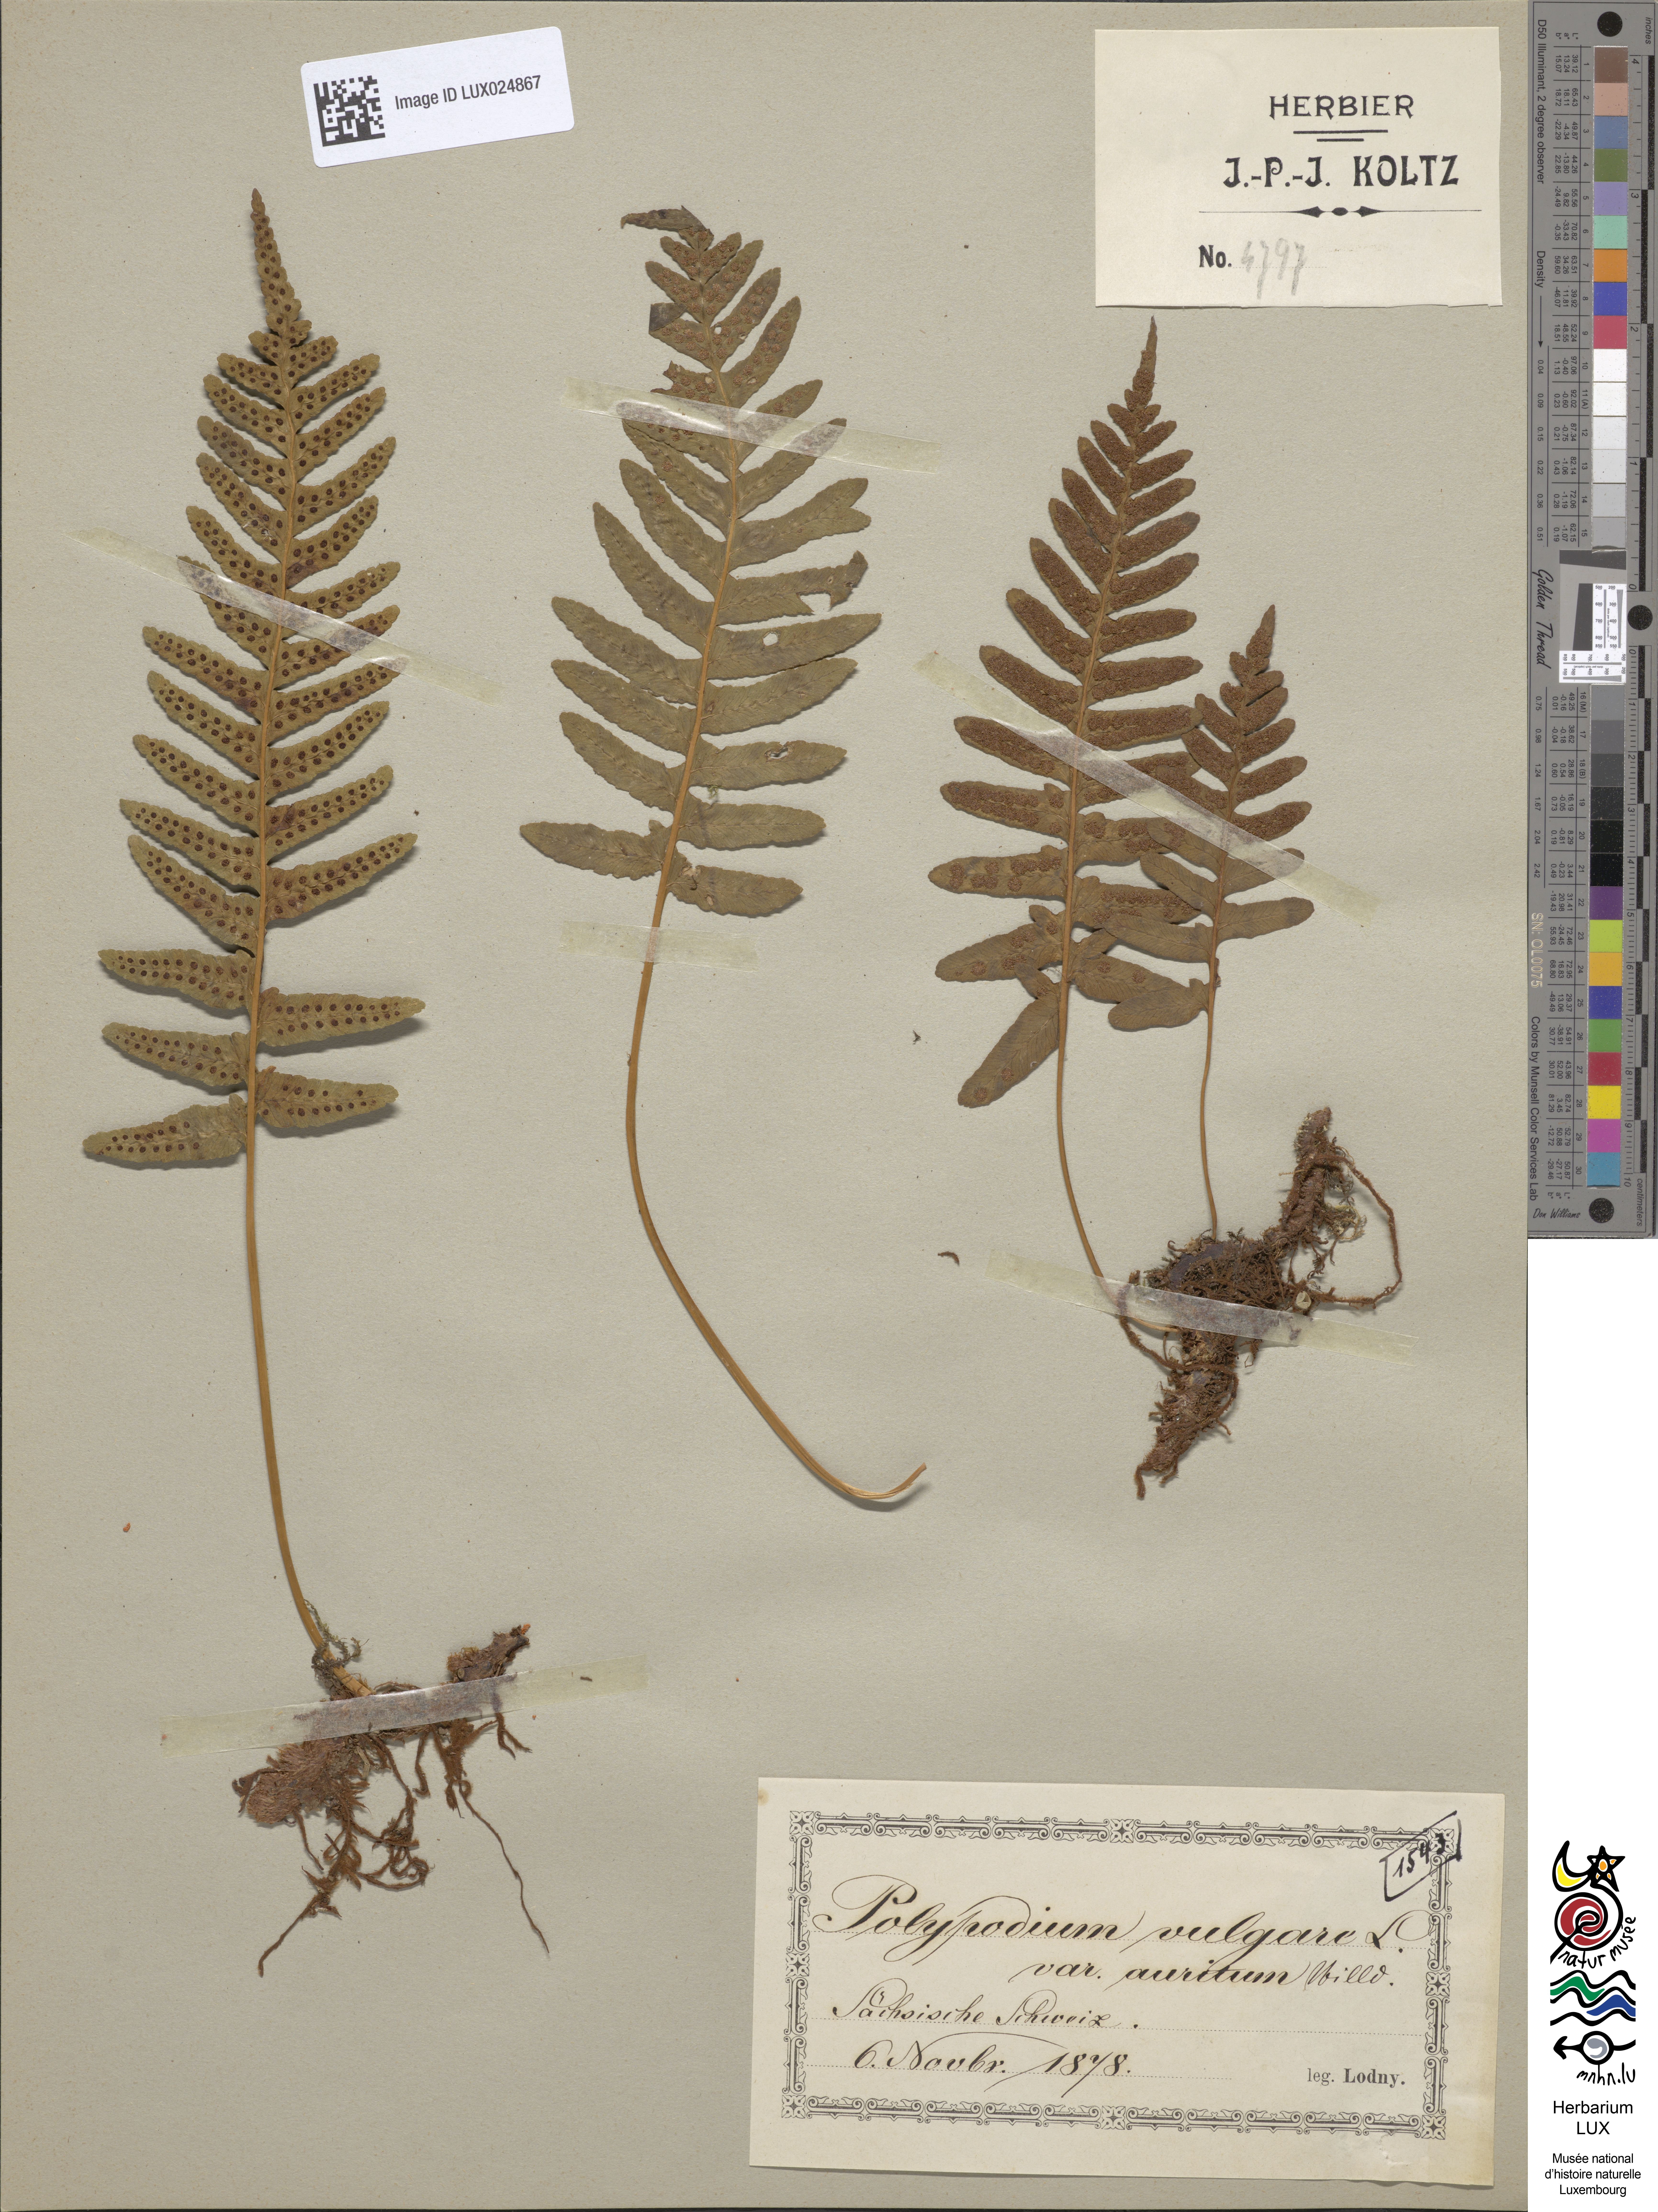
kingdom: Plantae
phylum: Tracheophyta
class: Polypodiopsida
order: Polypodiales
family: Polypodiaceae
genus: Polypodium
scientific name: Polypodium vulgare
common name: Common polypody
